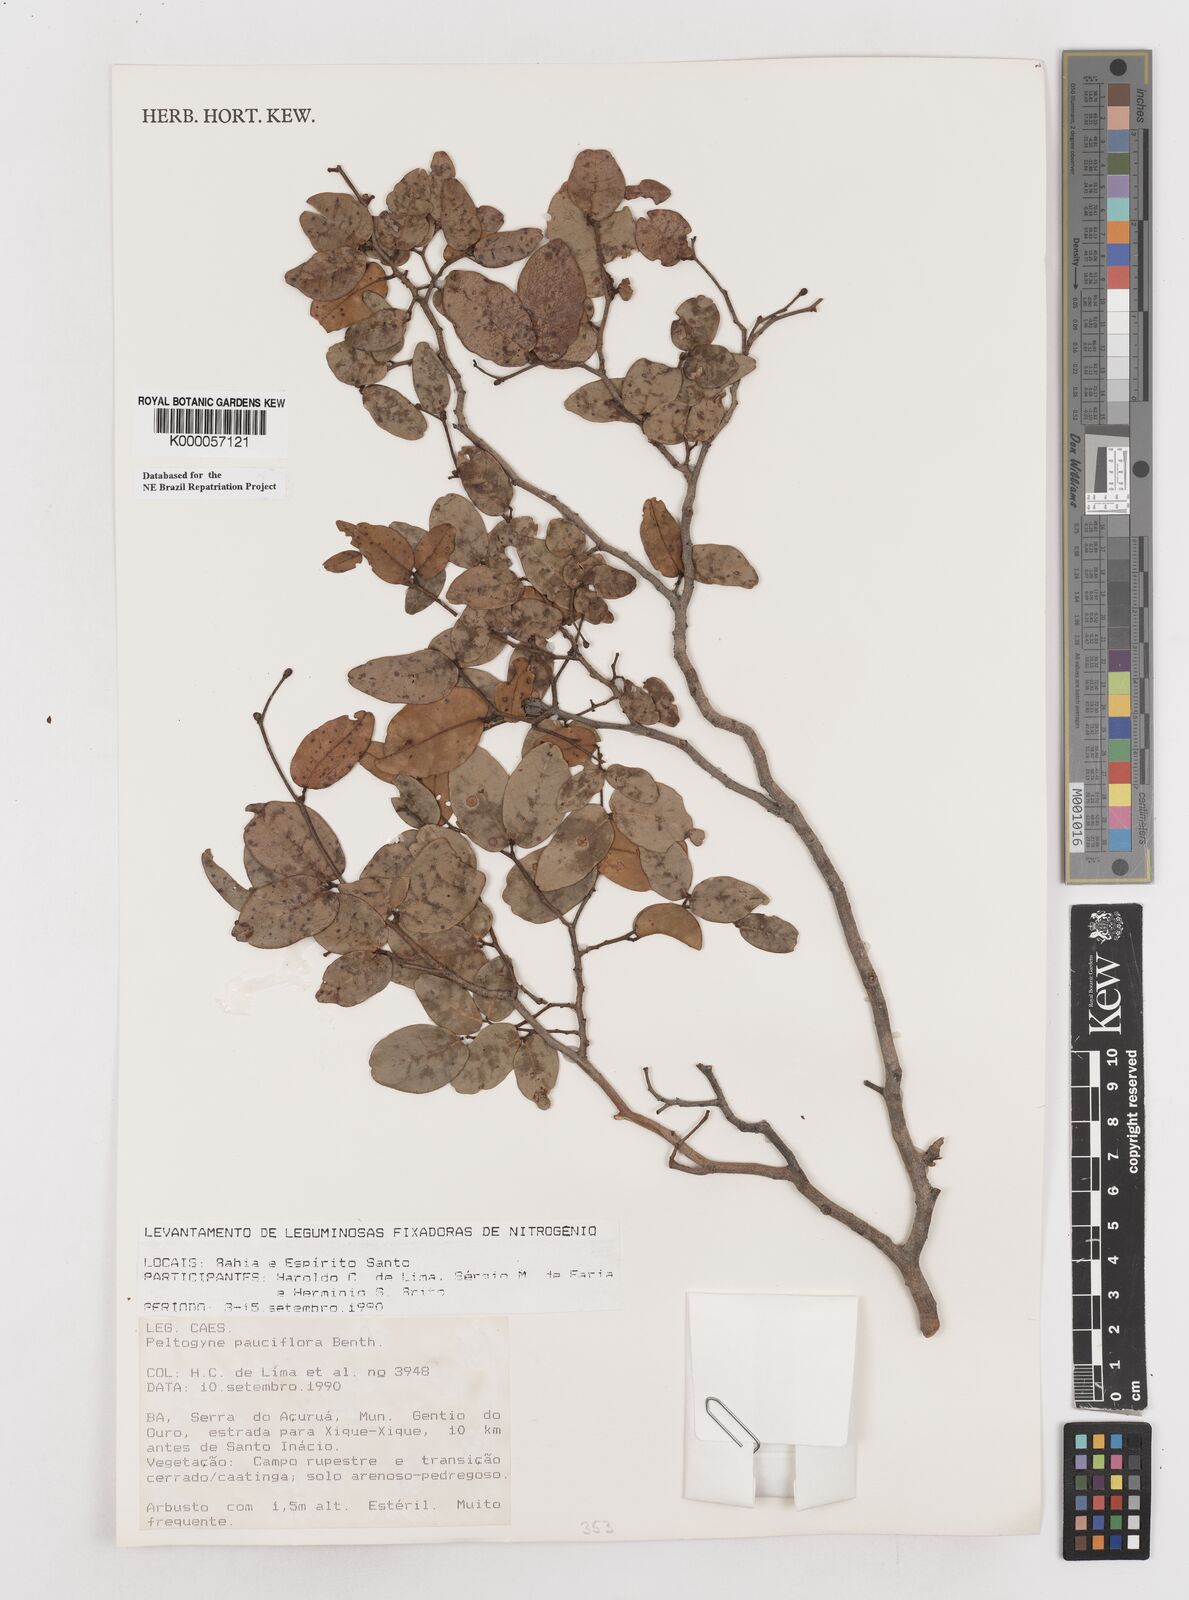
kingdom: Plantae
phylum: Tracheophyta
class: Magnoliopsida
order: Fabales
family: Fabaceae
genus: Peltogyne
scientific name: Peltogyne pauciflora
